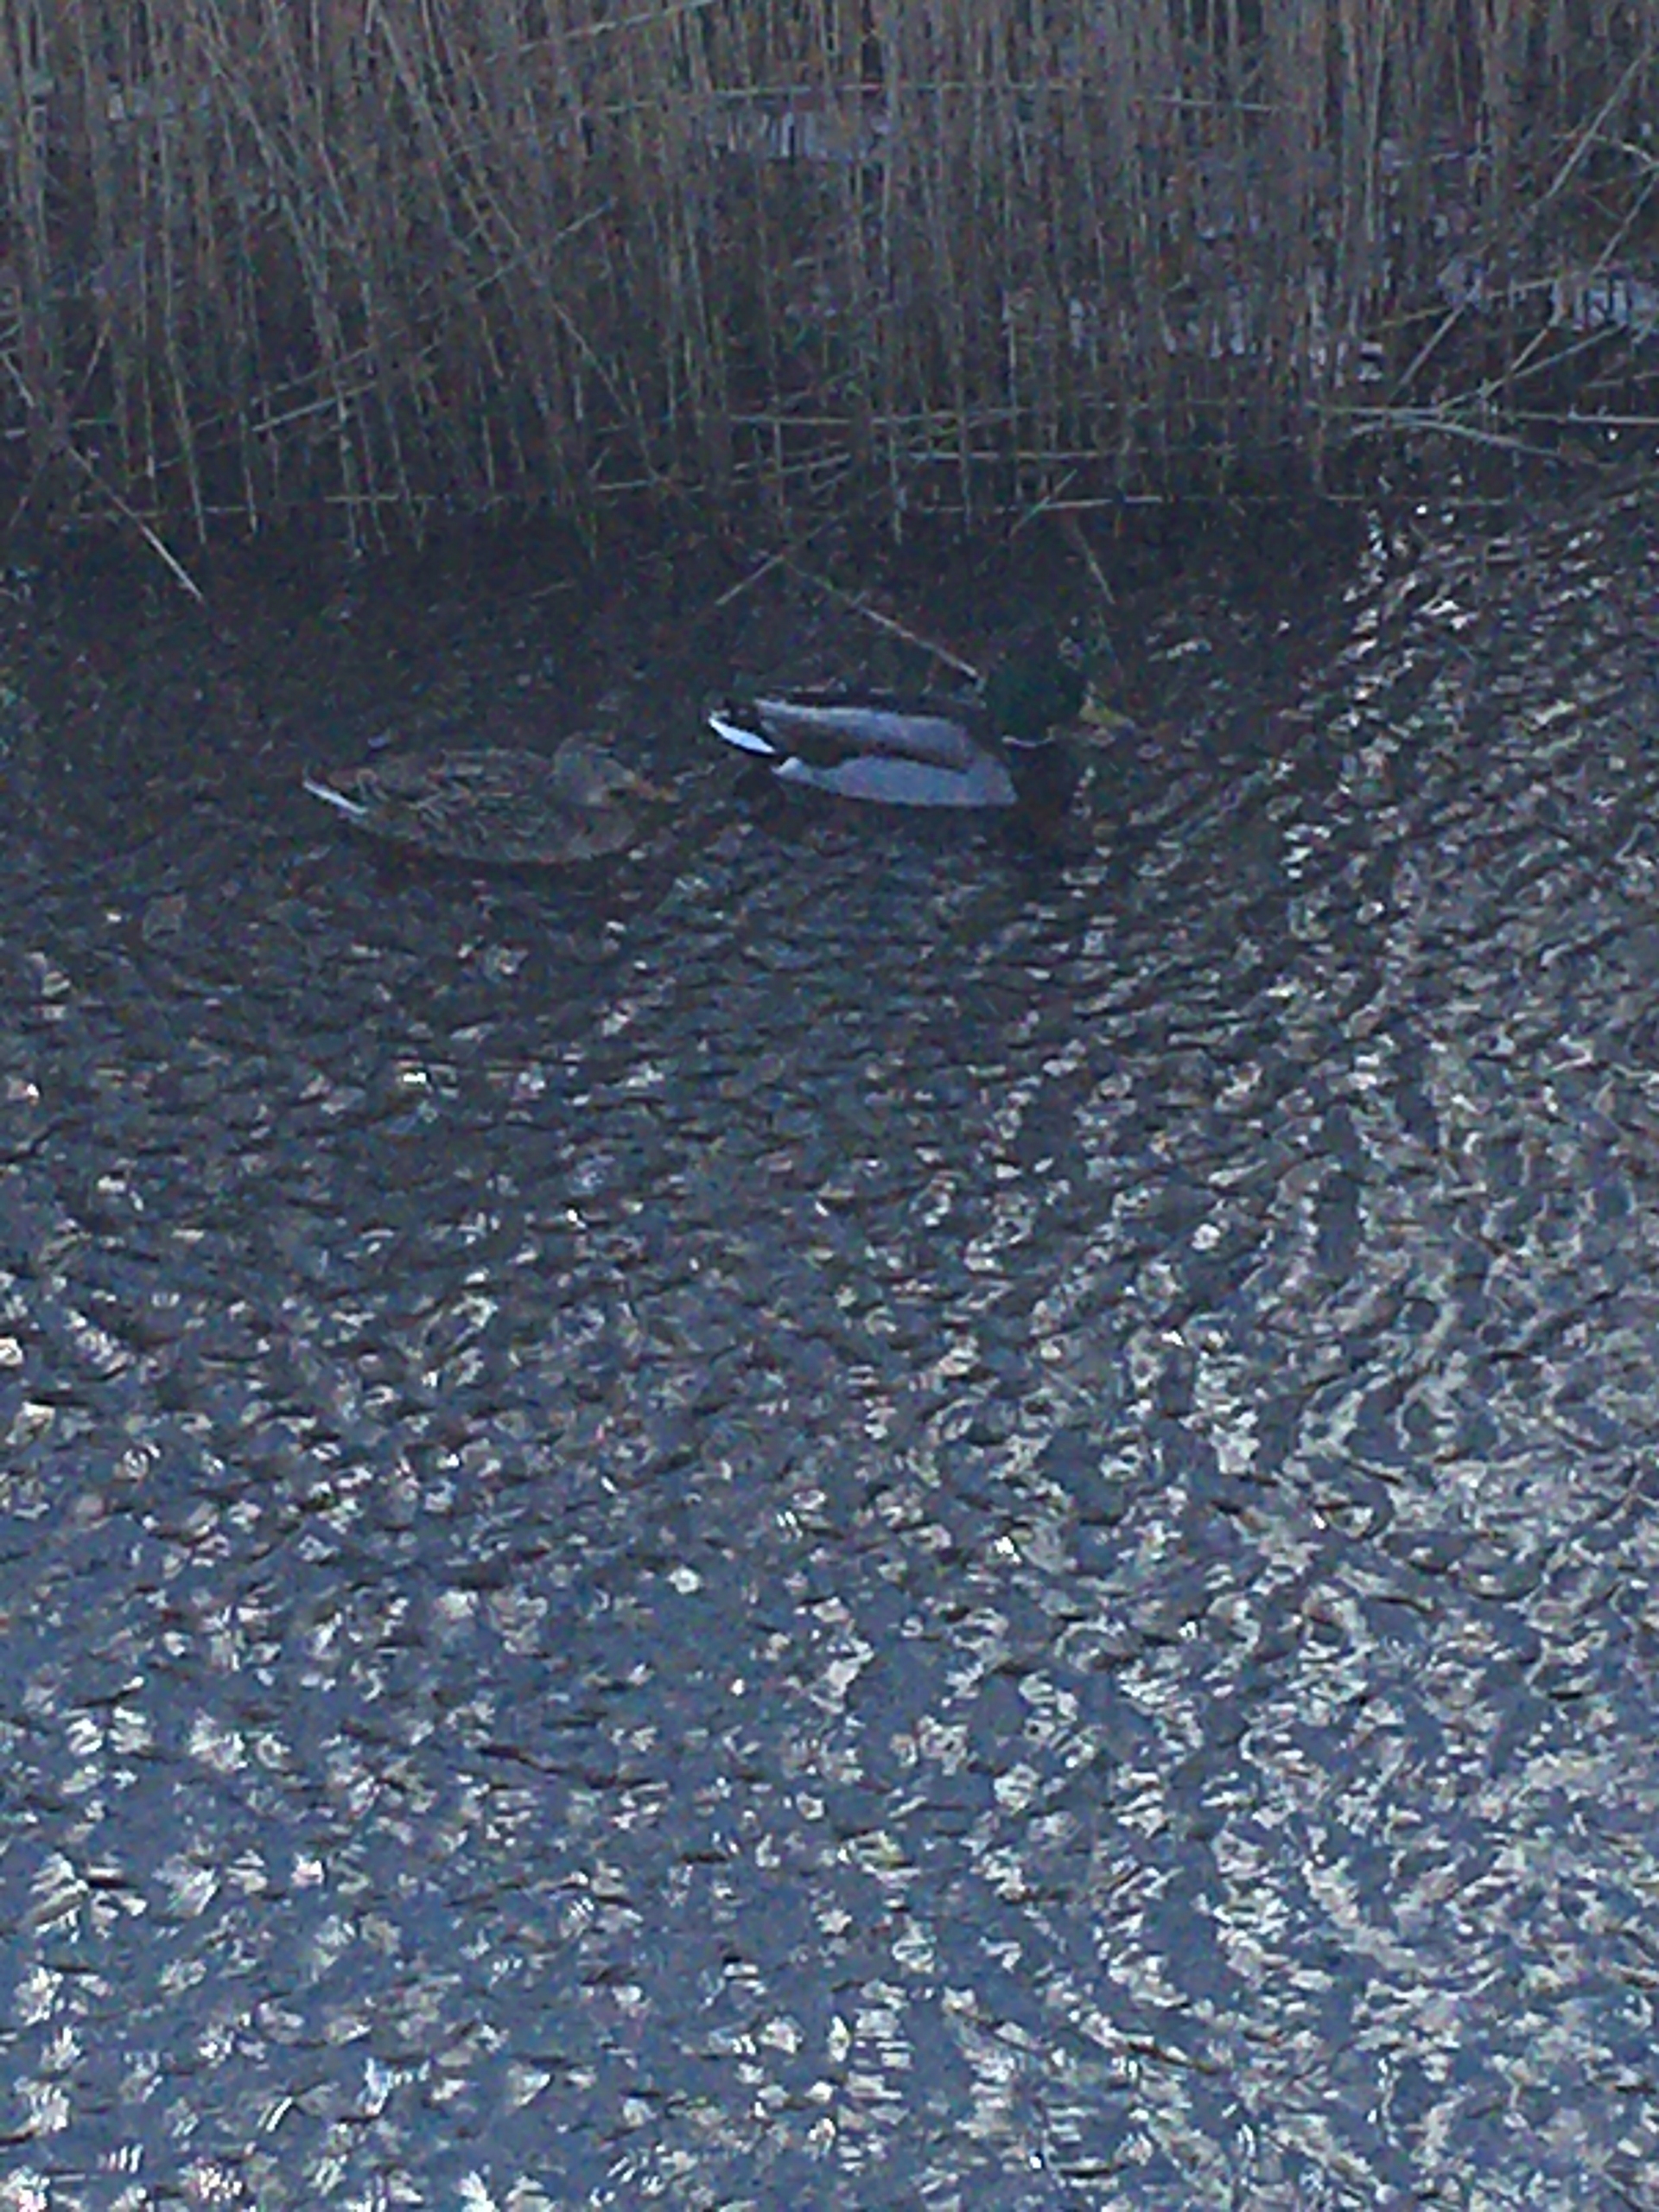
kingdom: Animalia
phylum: Chordata
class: Aves
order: Anseriformes
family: Anatidae
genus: Anas
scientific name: Anas platyrhynchos
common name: Gråand
